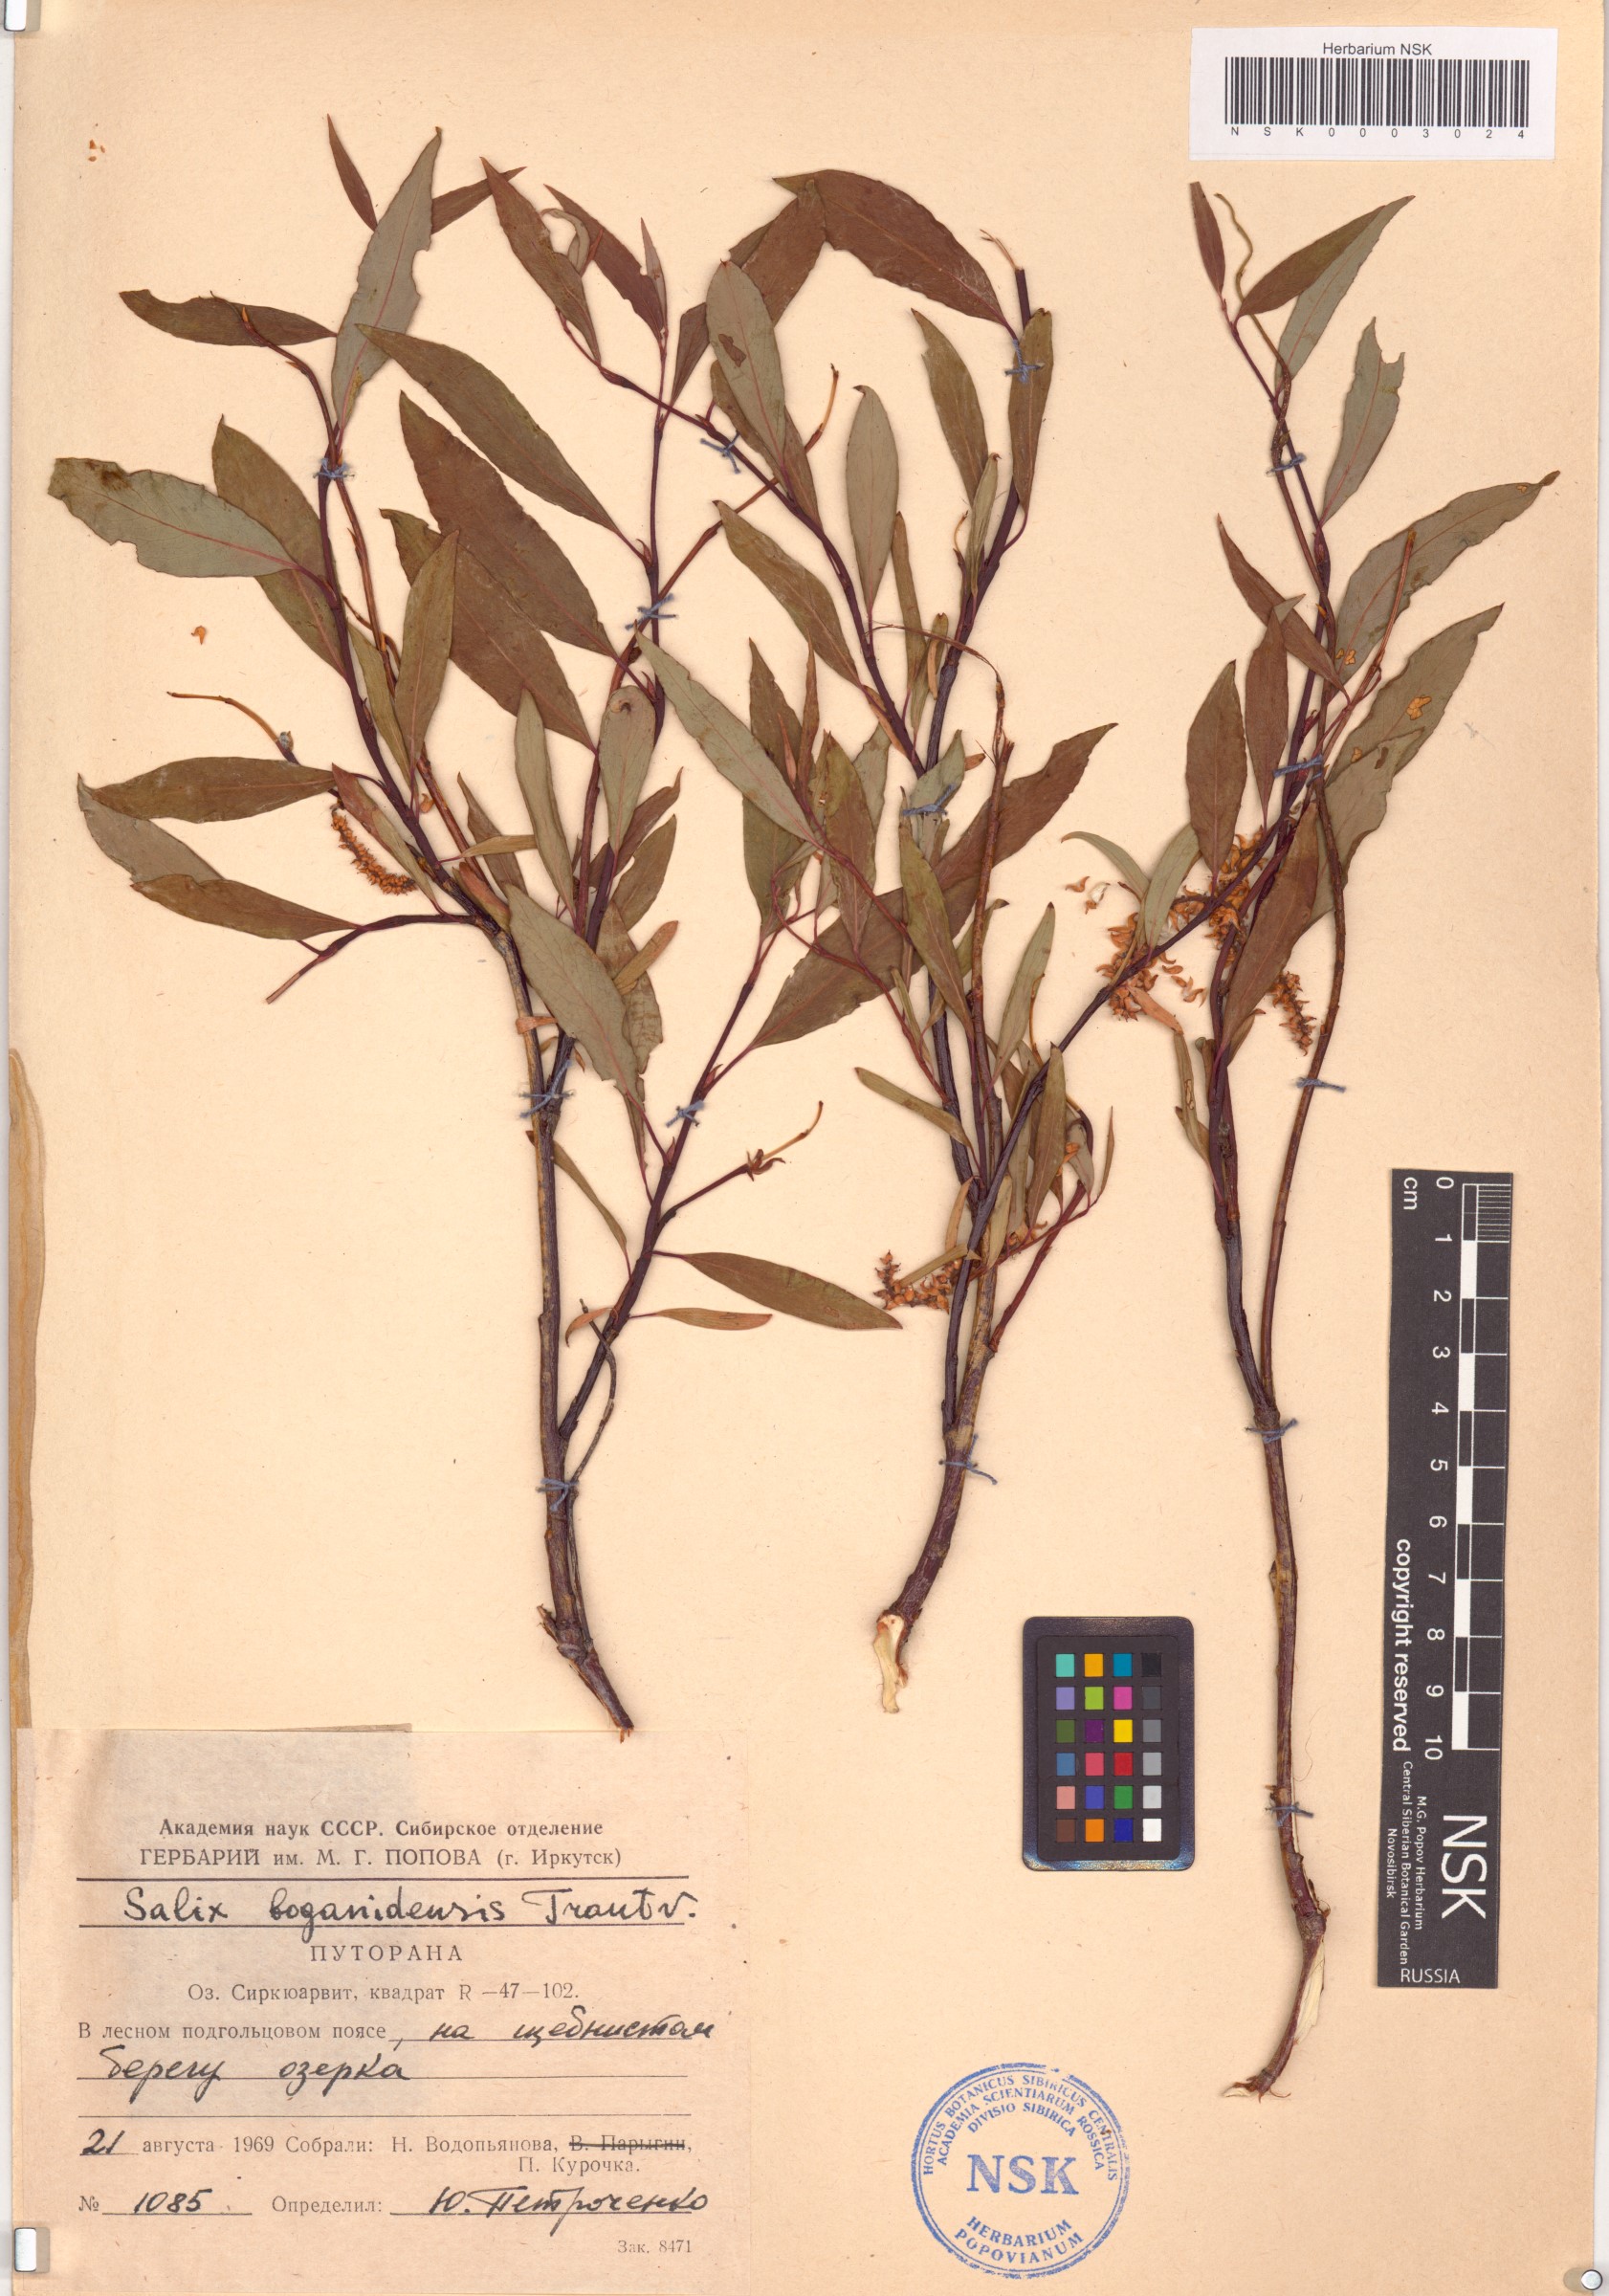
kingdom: Plantae
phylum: Tracheophyta
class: Magnoliopsida
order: Malpighiales
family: Salicaceae
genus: Salix
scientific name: Salix boganidensis
